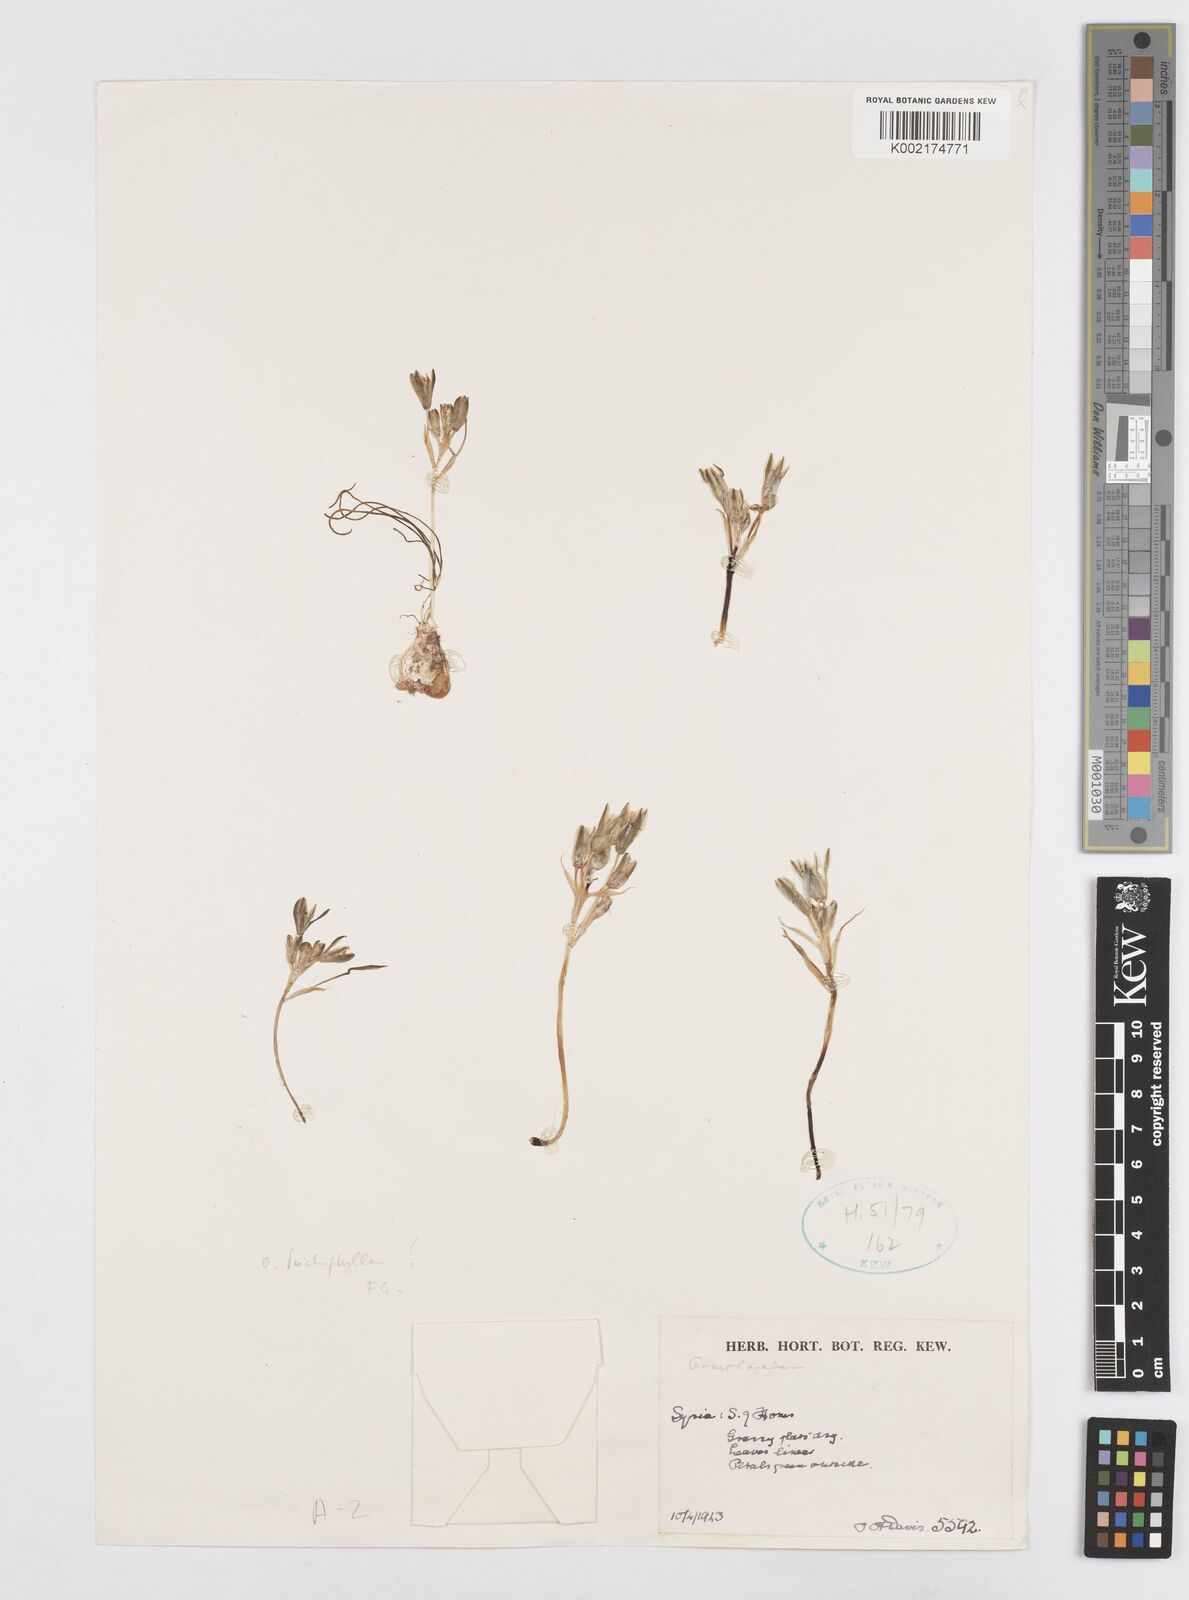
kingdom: Plantae
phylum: Tracheophyta
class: Liliopsida
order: Asparagales
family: Asparagaceae
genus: Ornithogalum
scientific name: Ornithogalum trichophyllum
